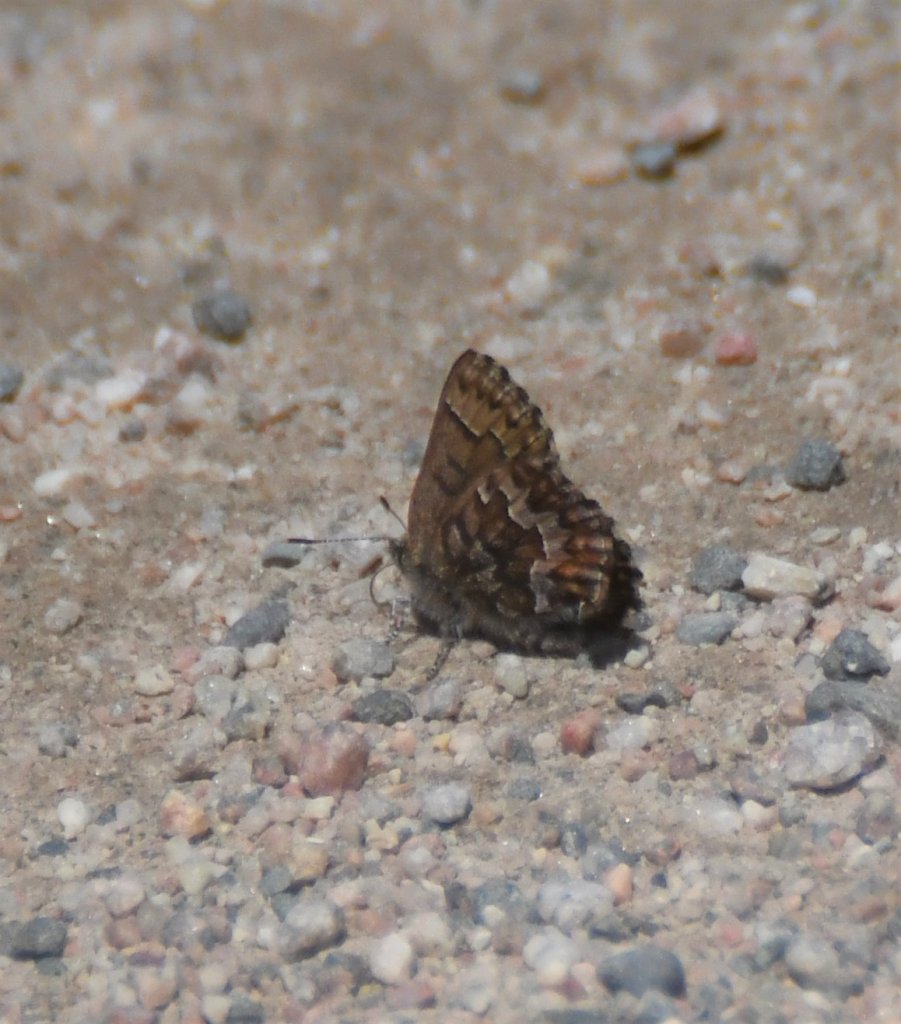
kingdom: Animalia
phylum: Arthropoda
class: Insecta
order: Lepidoptera
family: Lycaenidae
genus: Incisalia
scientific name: Incisalia niphon
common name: Eastern Pine Elfin
